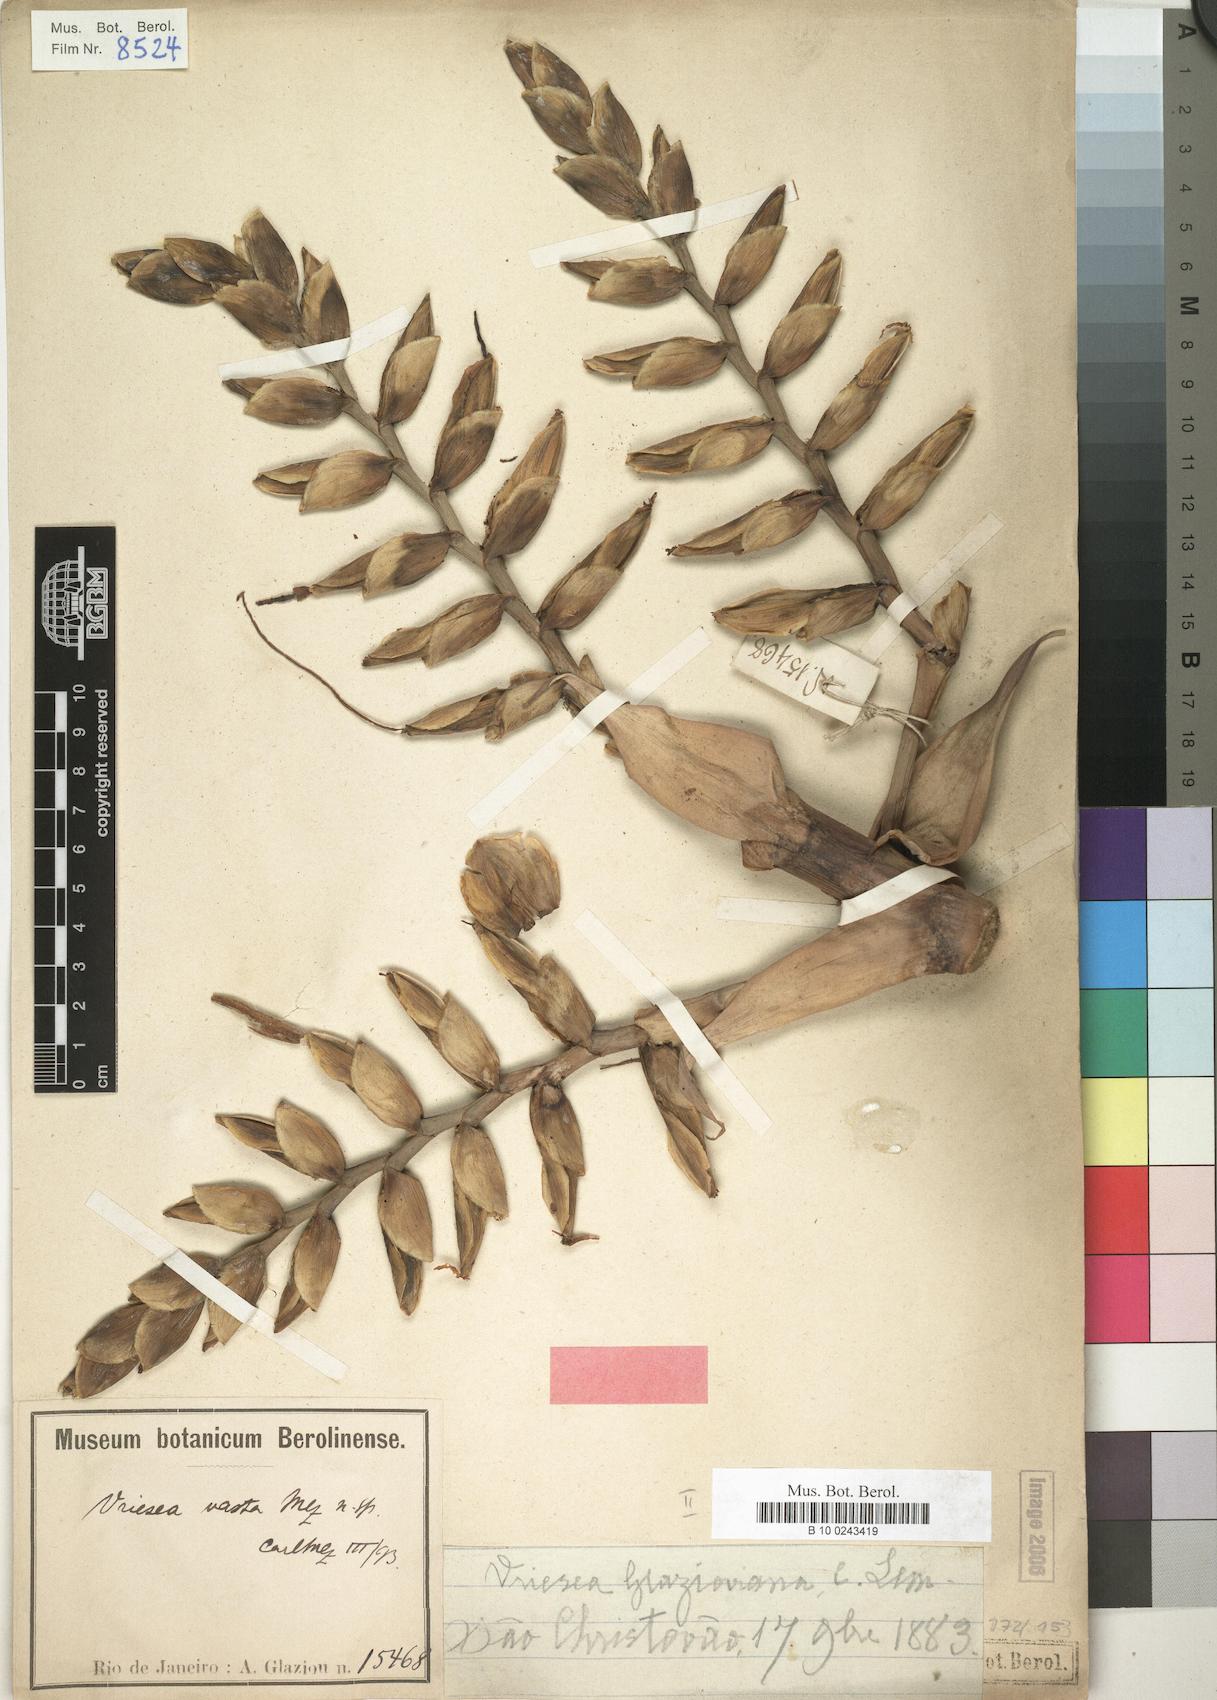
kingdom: Plantae
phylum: Tracheophyta
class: Liliopsida
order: Poales
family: Bromeliaceae
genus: Alcantarea
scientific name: Alcantarea glaziouana
